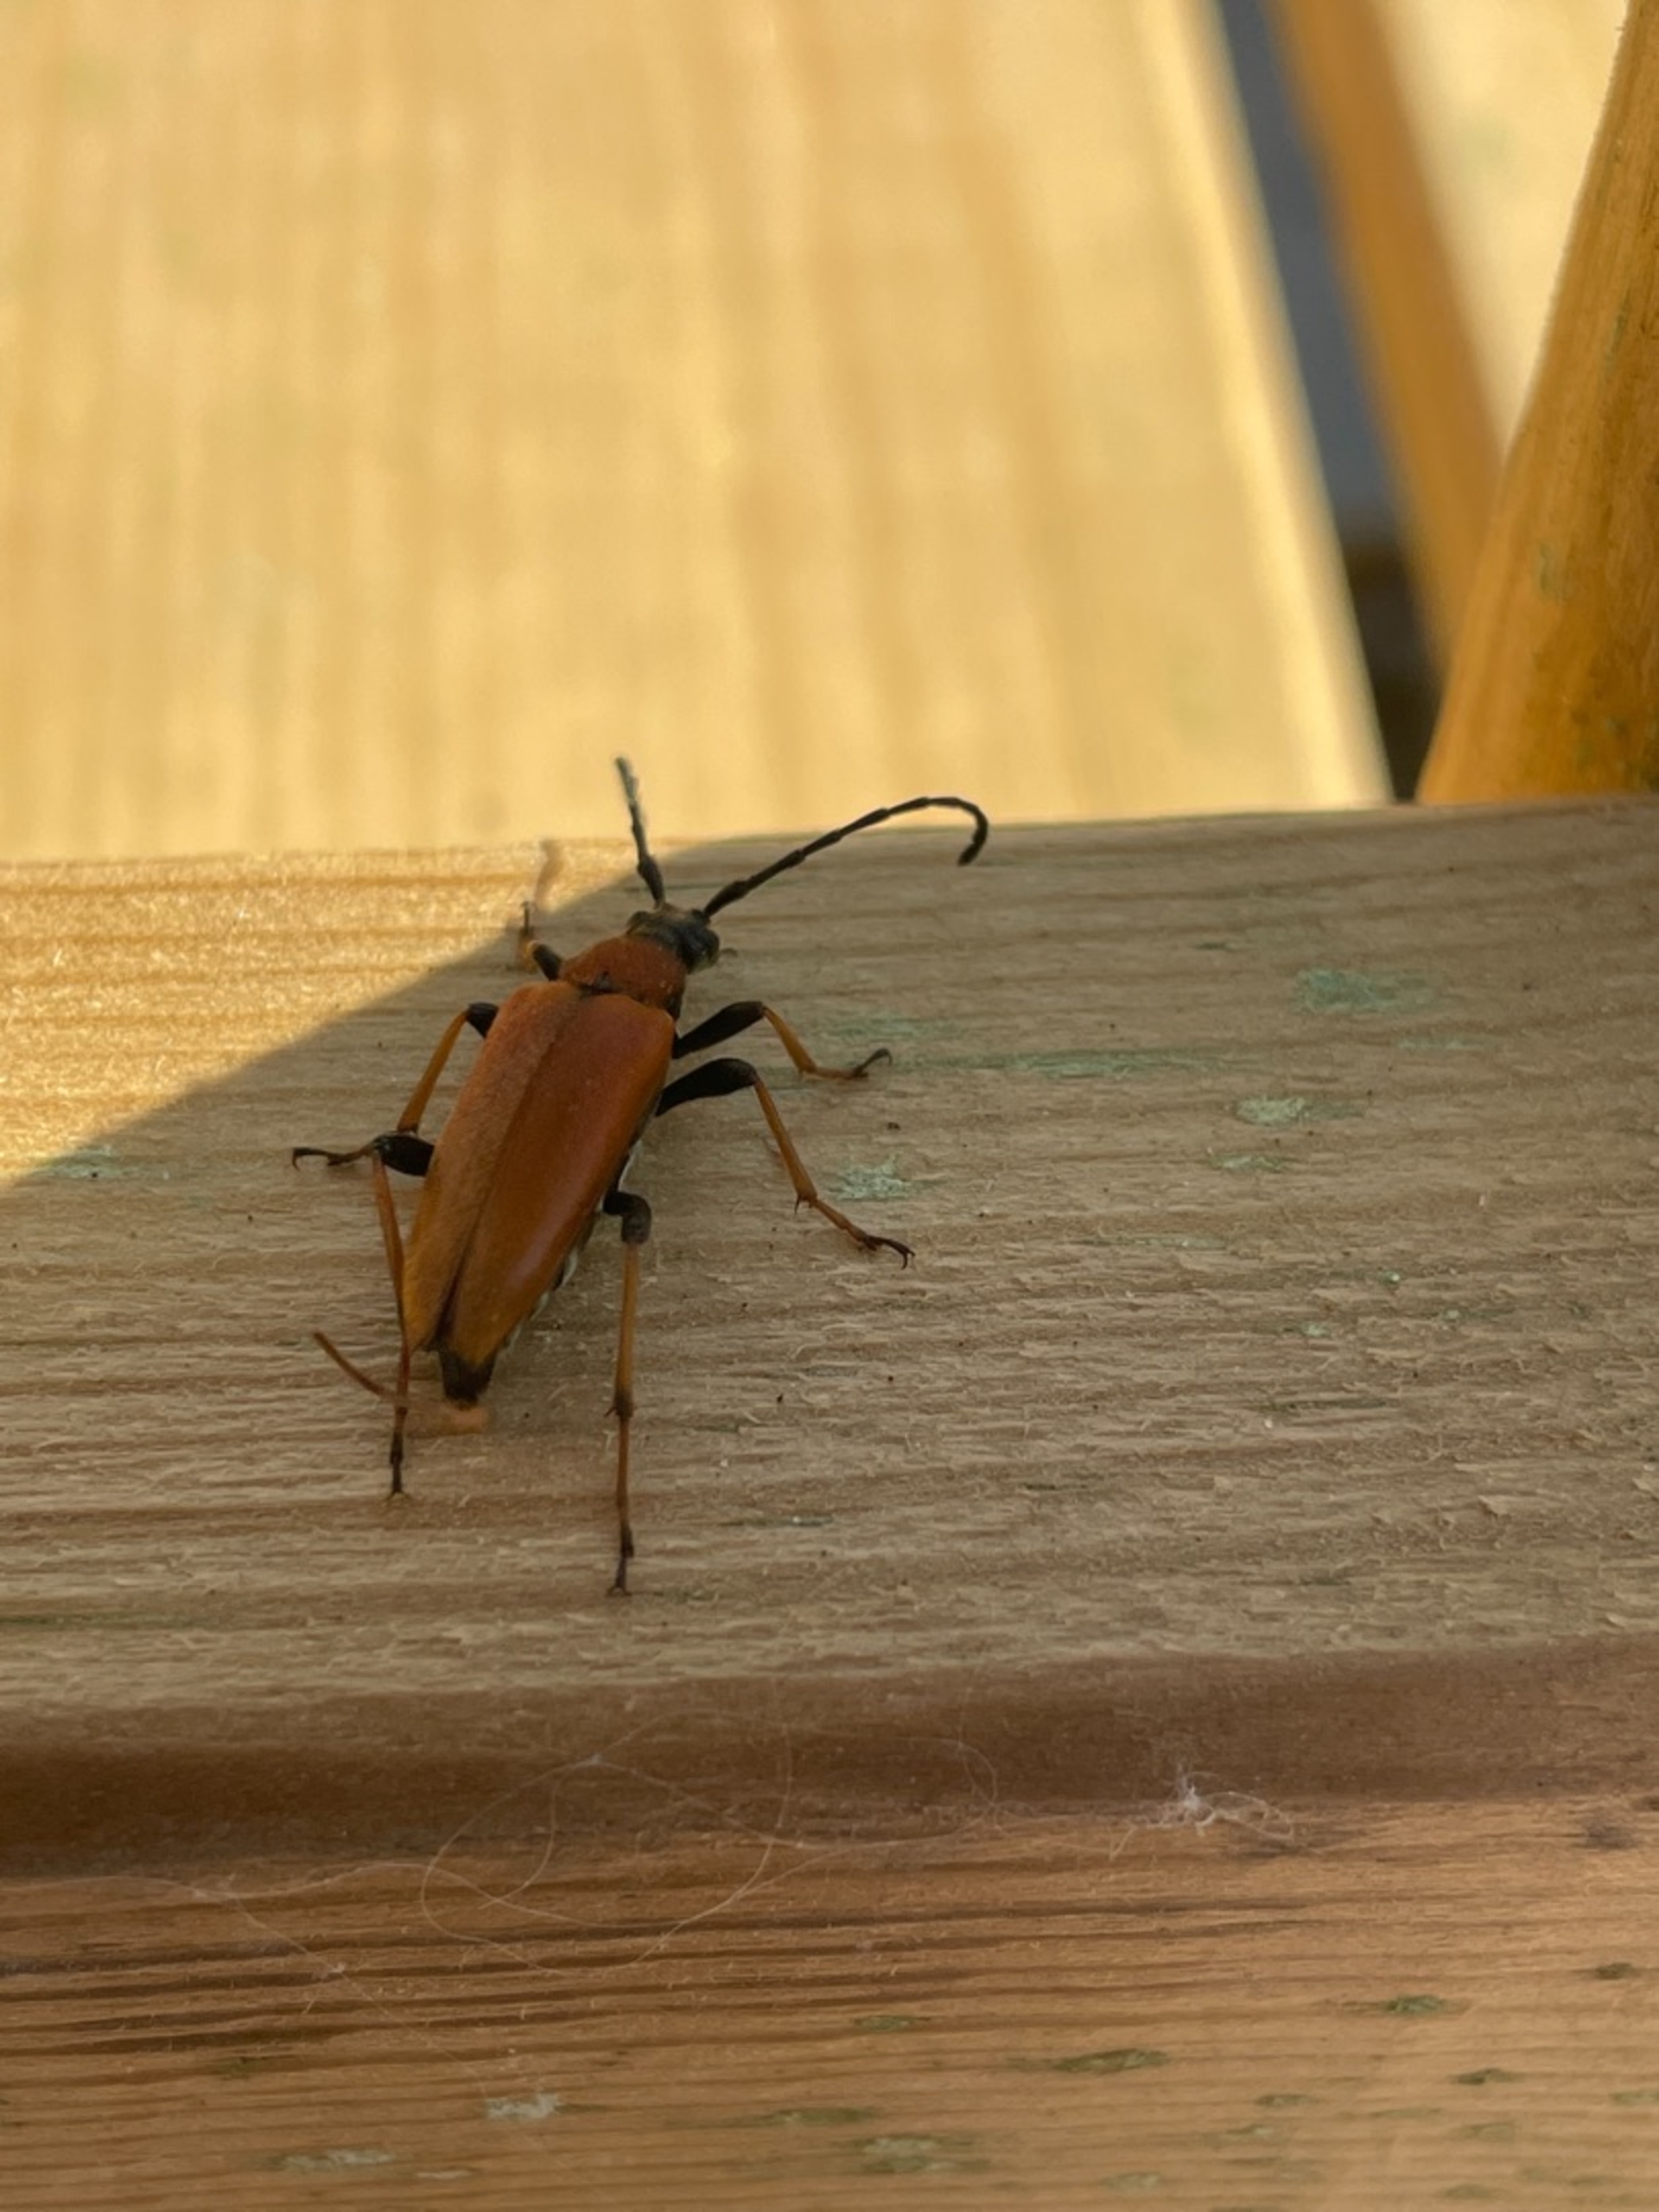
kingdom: Animalia
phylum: Arthropoda
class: Insecta
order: Coleoptera
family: Cerambycidae
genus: Stictoleptura
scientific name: Stictoleptura rubra
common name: Rød blomsterbuk
